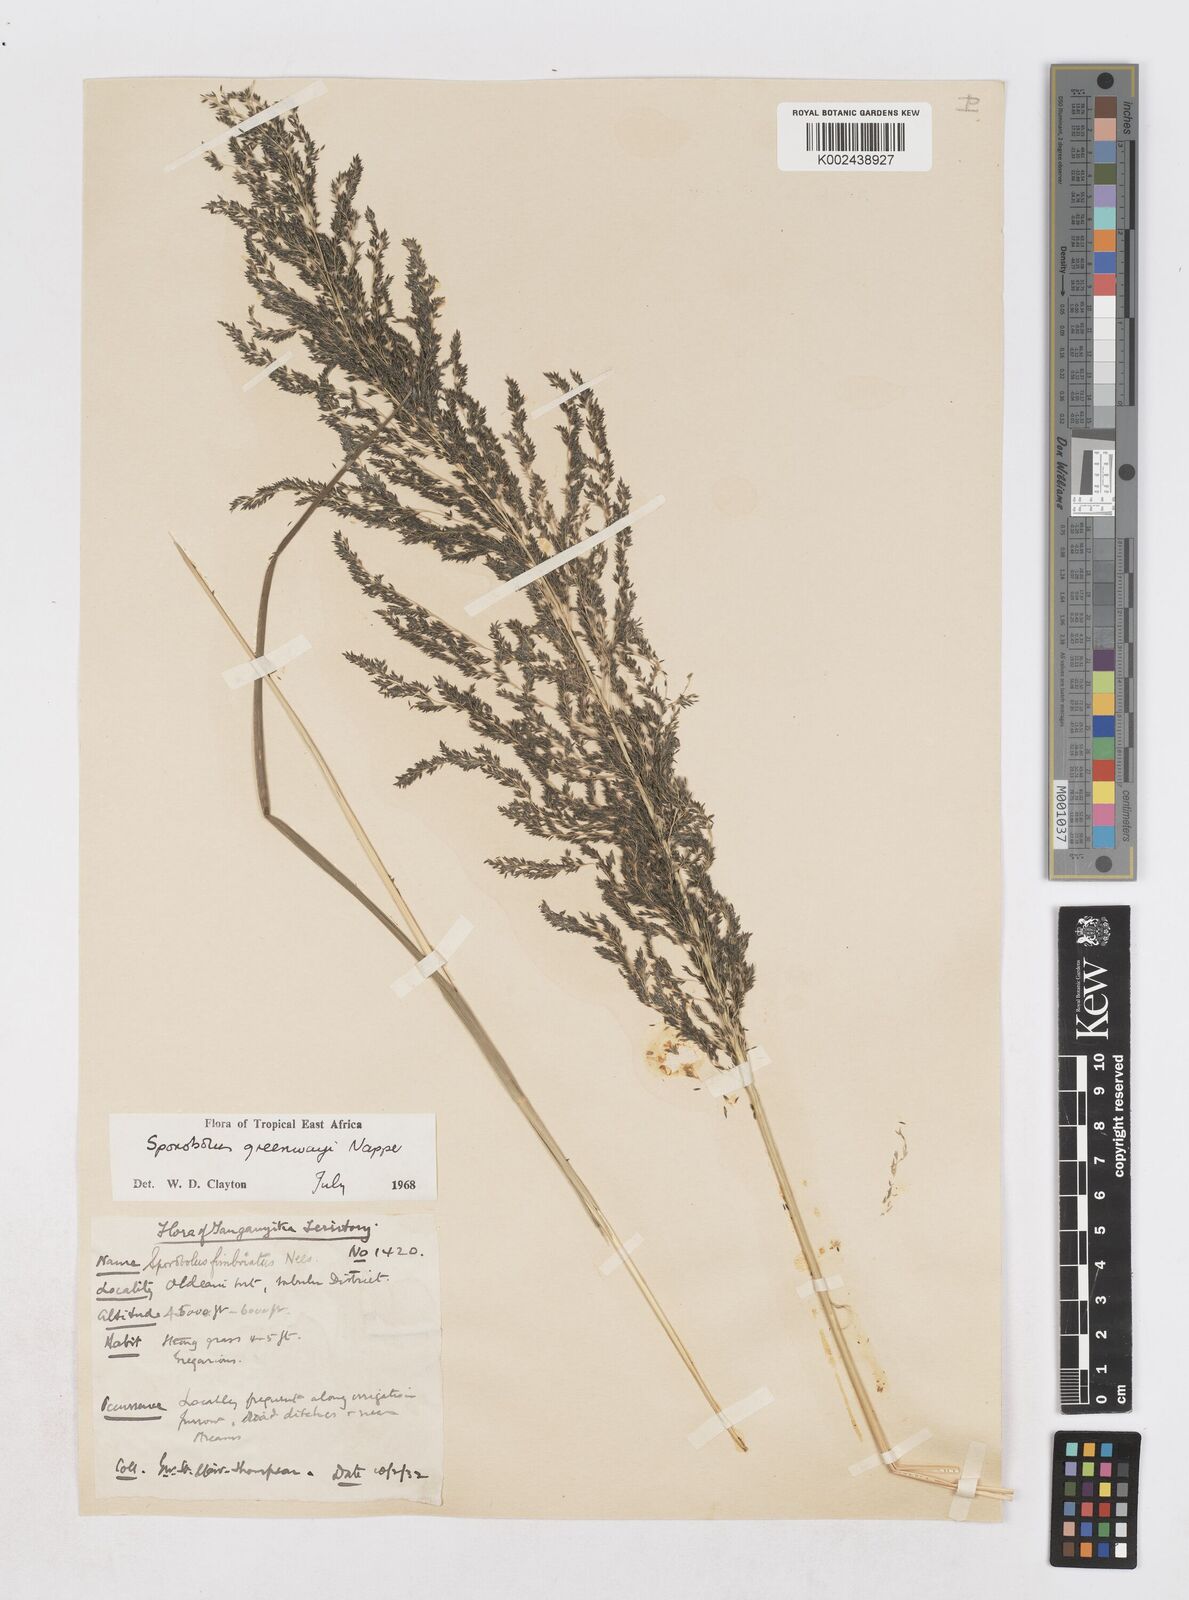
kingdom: Plantae
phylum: Tracheophyta
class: Liliopsida
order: Poales
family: Poaceae
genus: Sporobolus
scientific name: Sporobolus macranthelus
